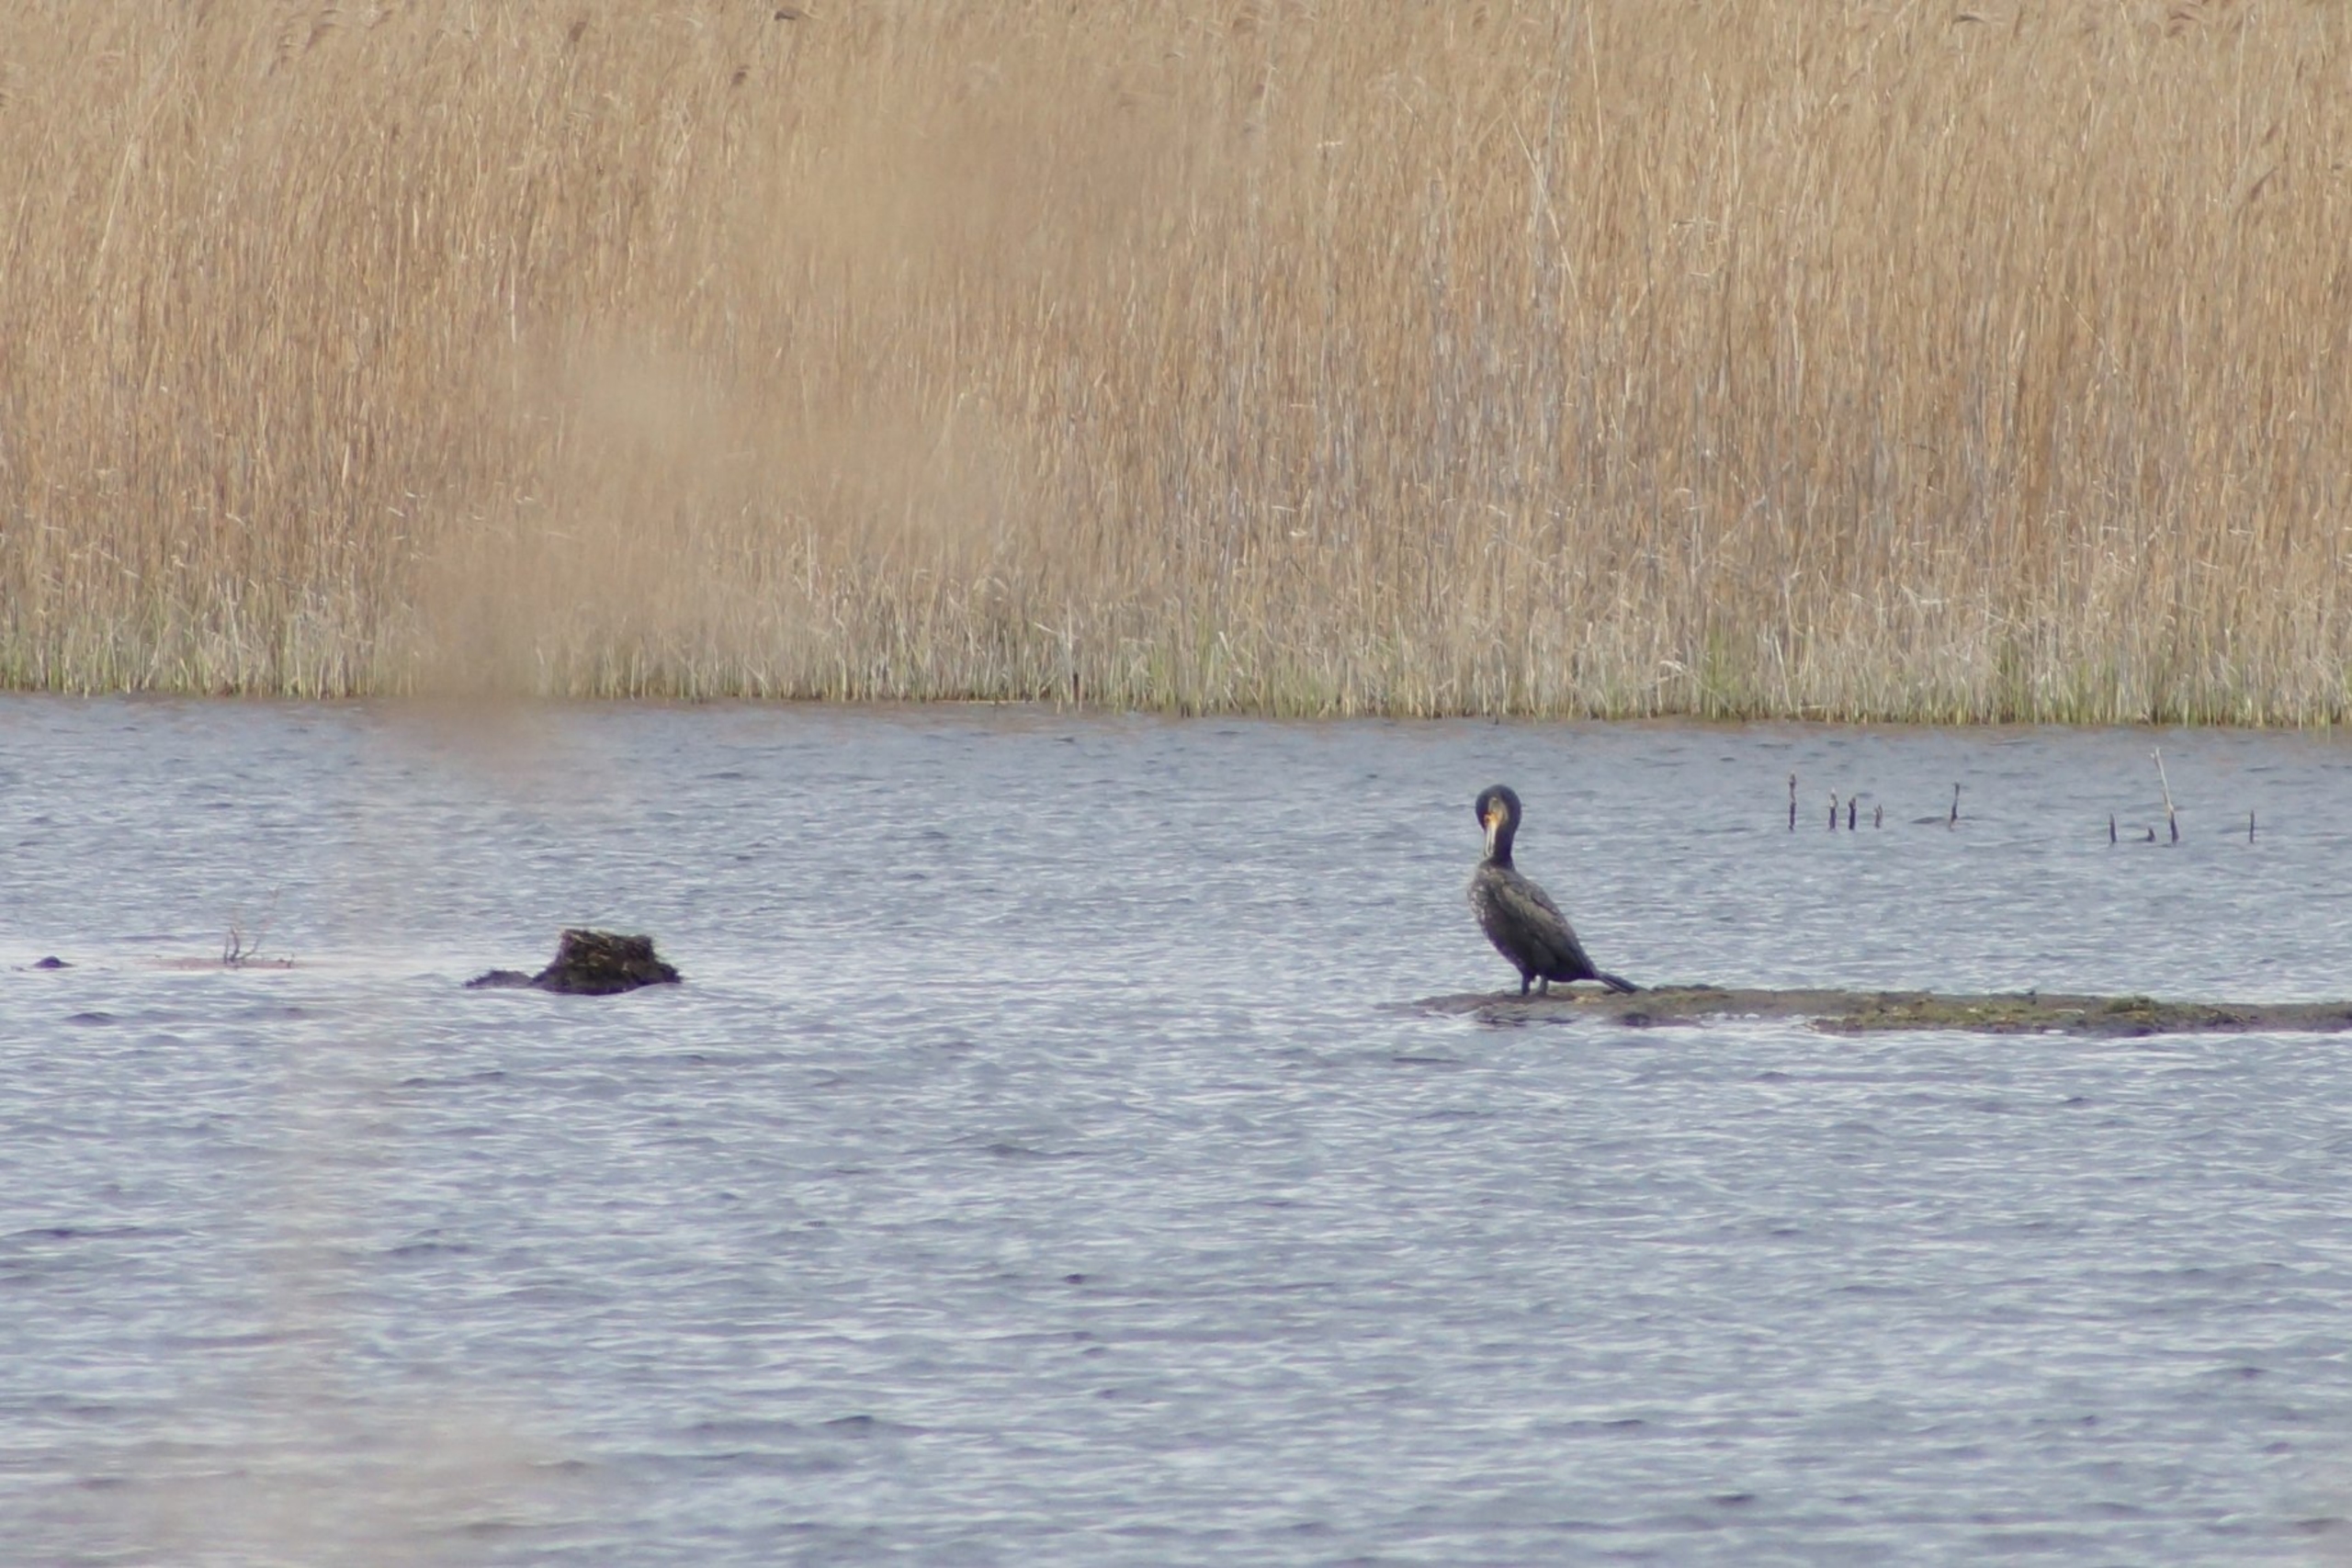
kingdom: Animalia
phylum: Chordata
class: Aves
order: Suliformes
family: Phalacrocoracidae
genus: Phalacrocorax
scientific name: Phalacrocorax carbo
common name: Skarv
